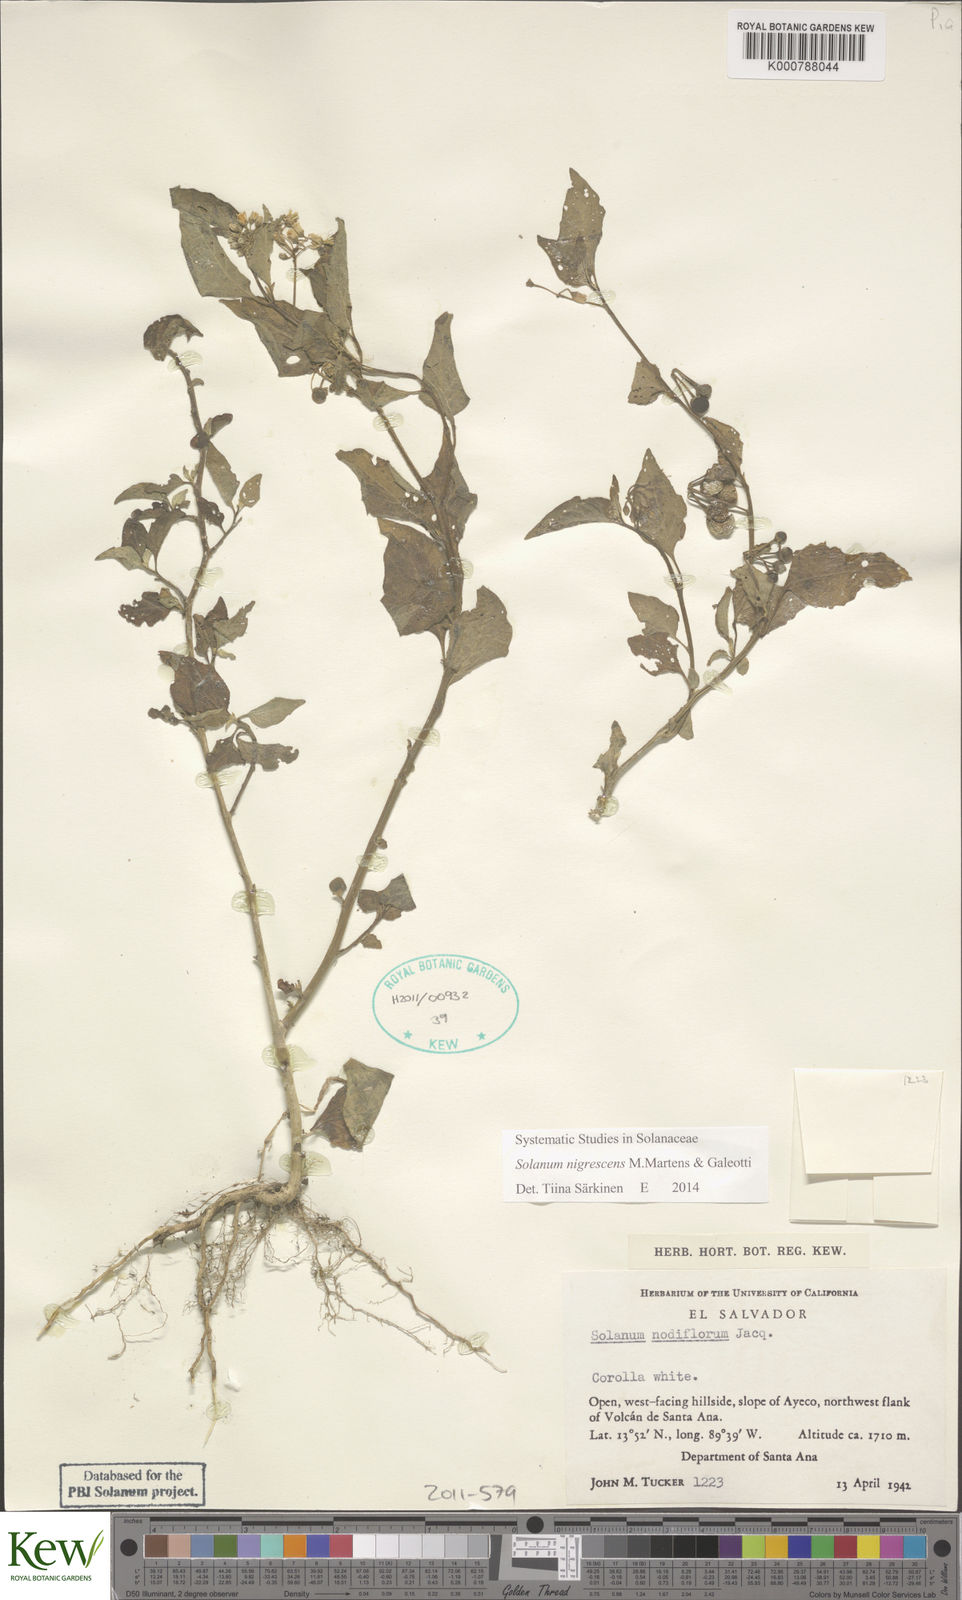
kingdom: Plantae
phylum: Tracheophyta
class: Magnoliopsida
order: Solanales
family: Solanaceae
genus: Solanum
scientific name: Solanum macrotonum
